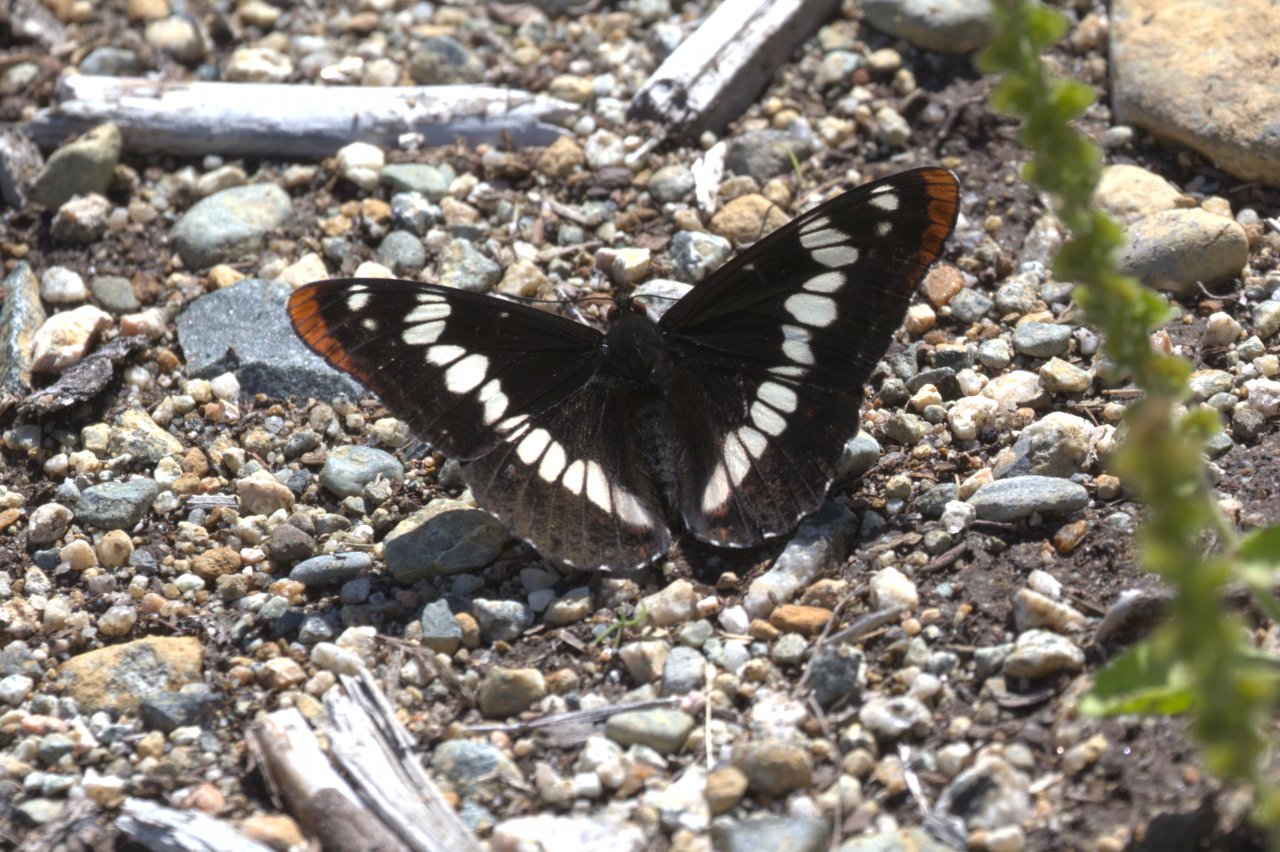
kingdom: Animalia
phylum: Arthropoda
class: Insecta
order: Lepidoptera
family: Nymphalidae
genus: Limenitis
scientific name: Limenitis lorquini
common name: Lorquin's Admiral
